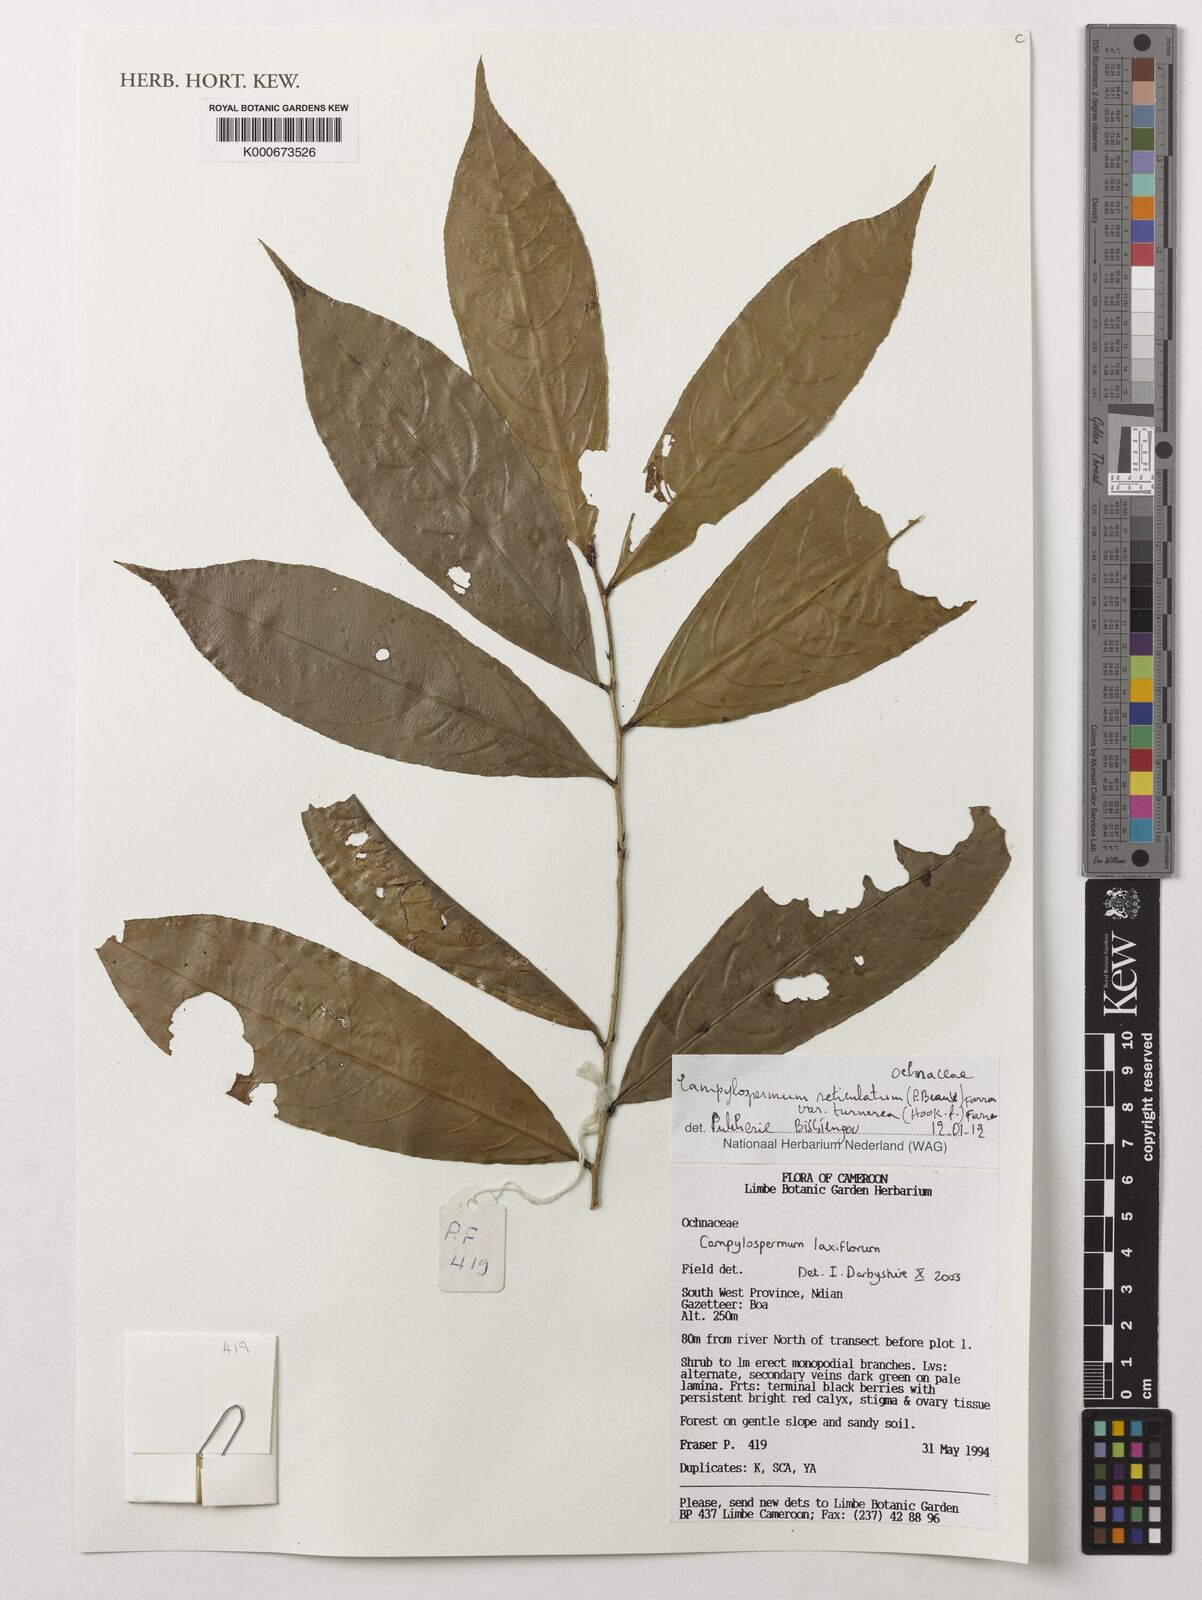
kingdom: Plantae
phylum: Tracheophyta
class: Magnoliopsida
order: Malpighiales
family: Ochnaceae
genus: Campylospermum
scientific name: Campylospermum reticulatum
